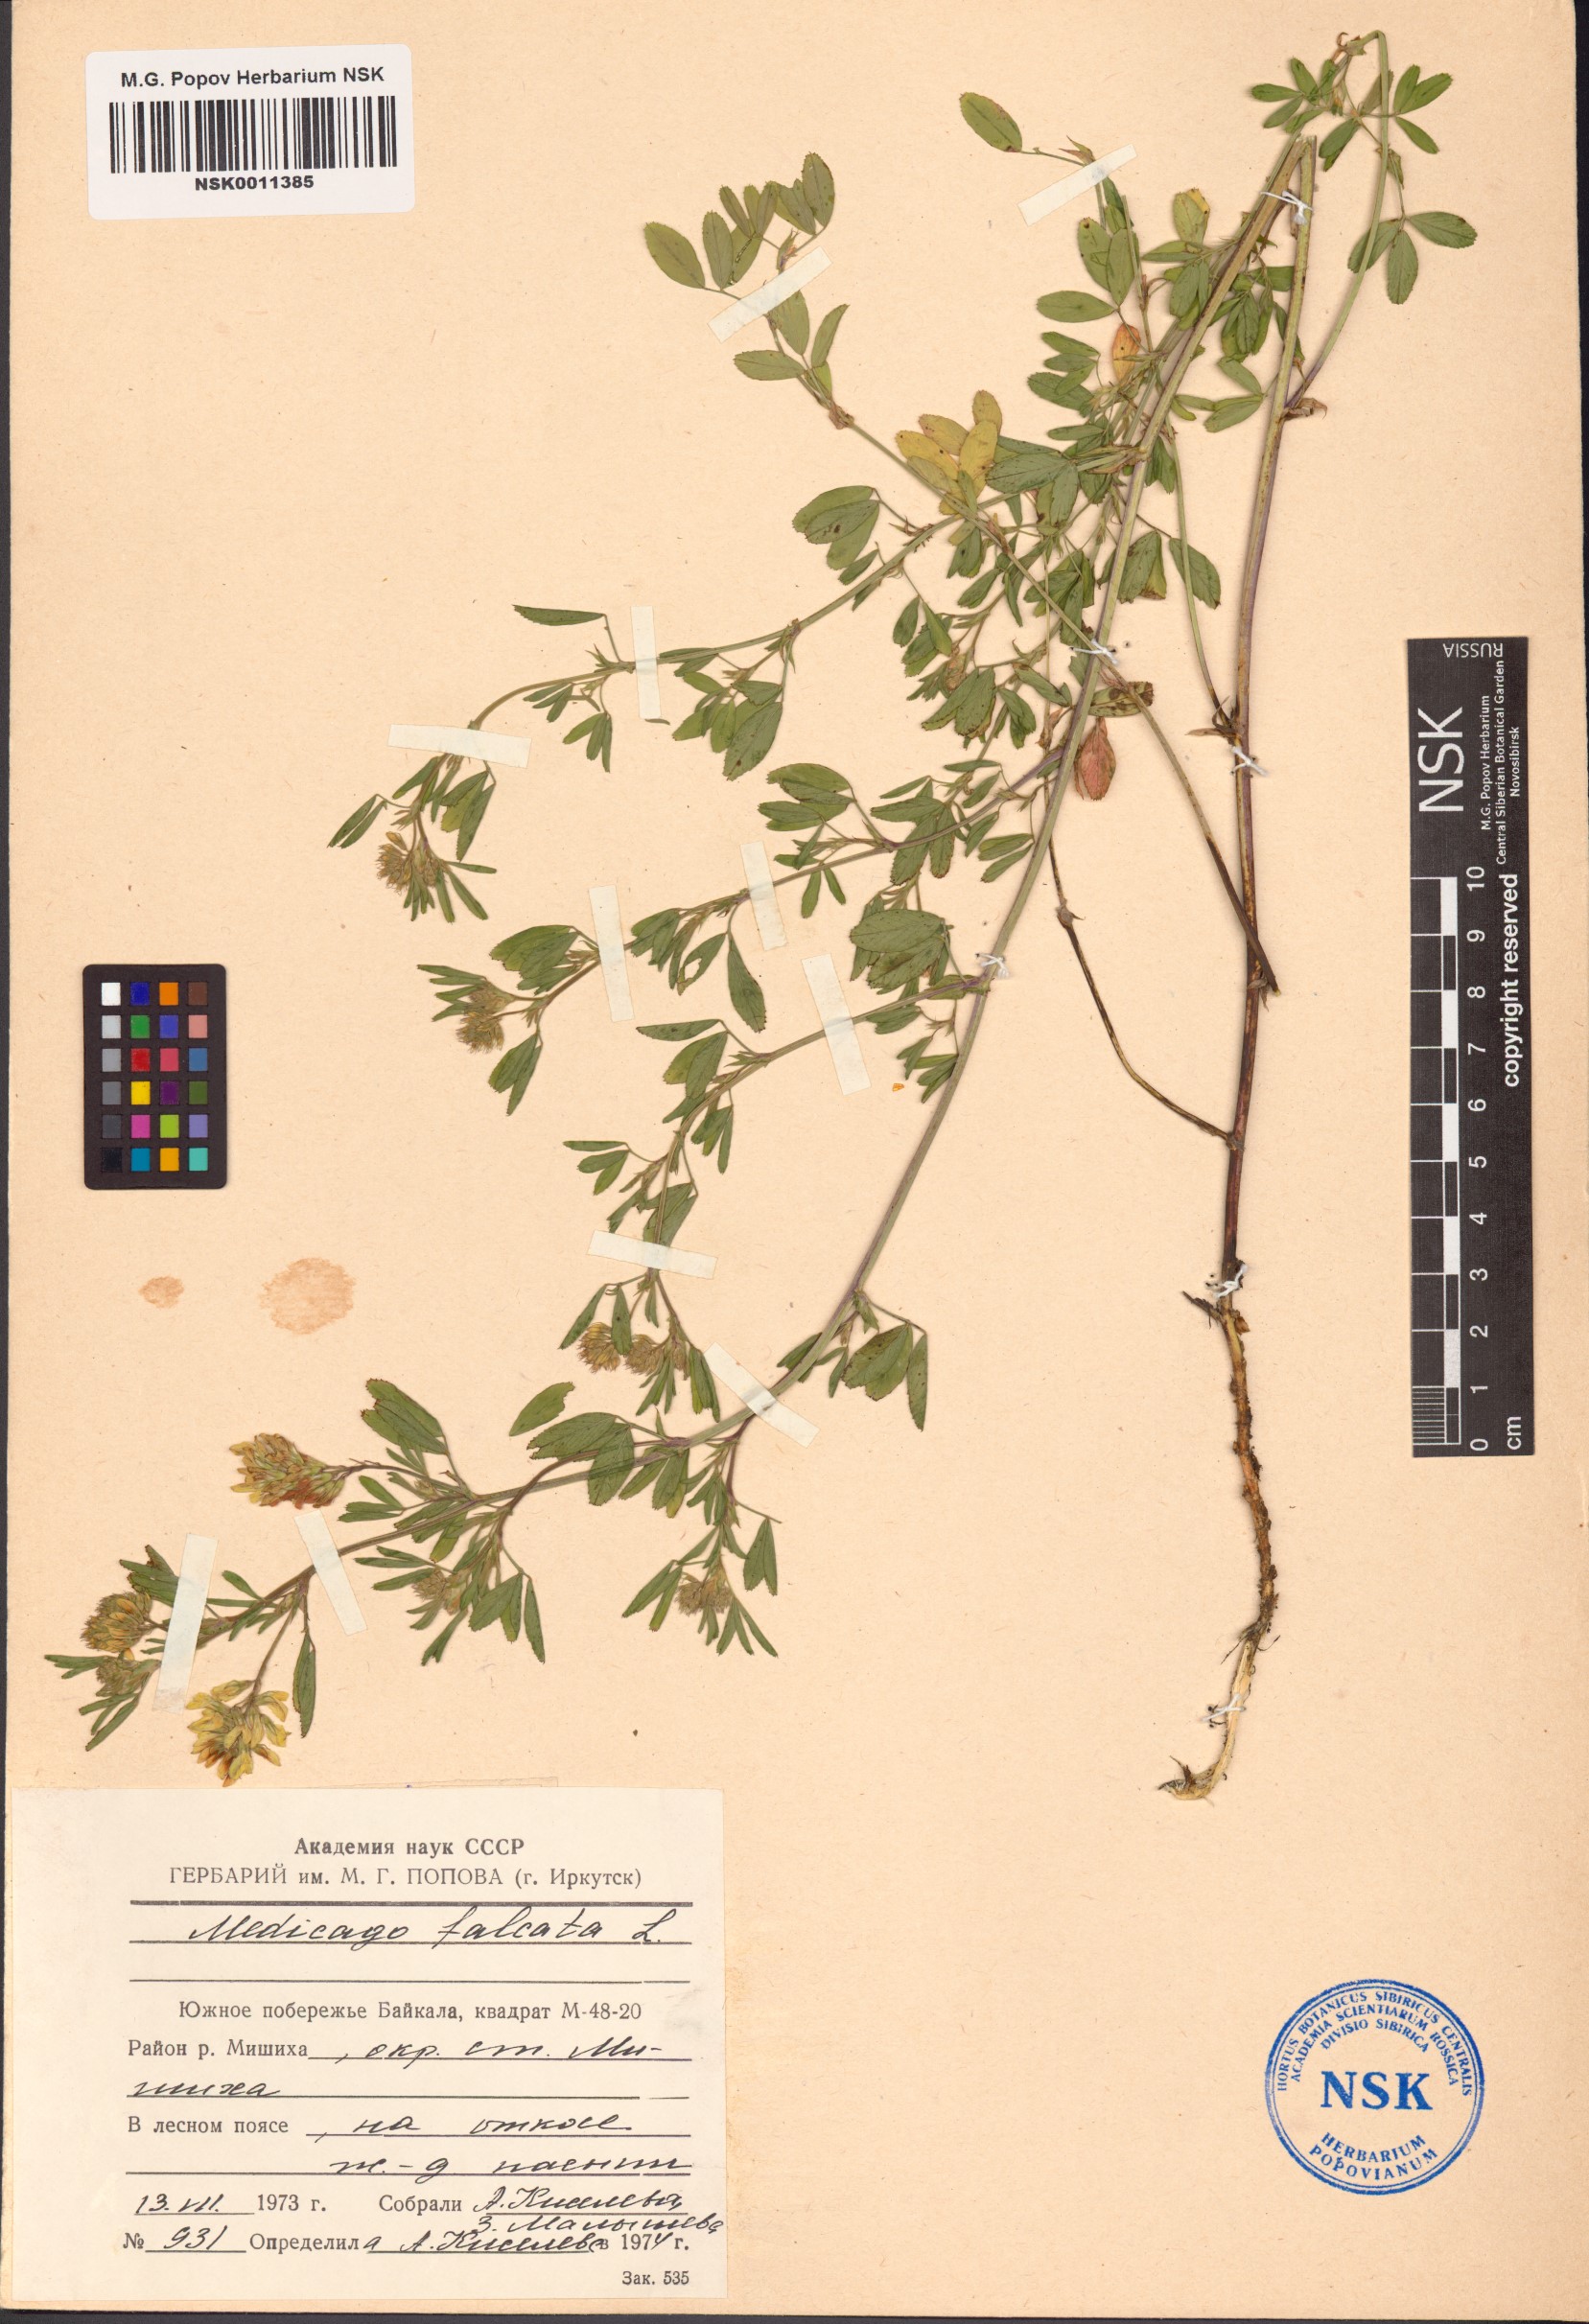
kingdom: Plantae
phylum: Tracheophyta
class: Magnoliopsida
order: Fabales
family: Fabaceae
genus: Medicago
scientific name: Medicago falcata
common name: Sickle medick
